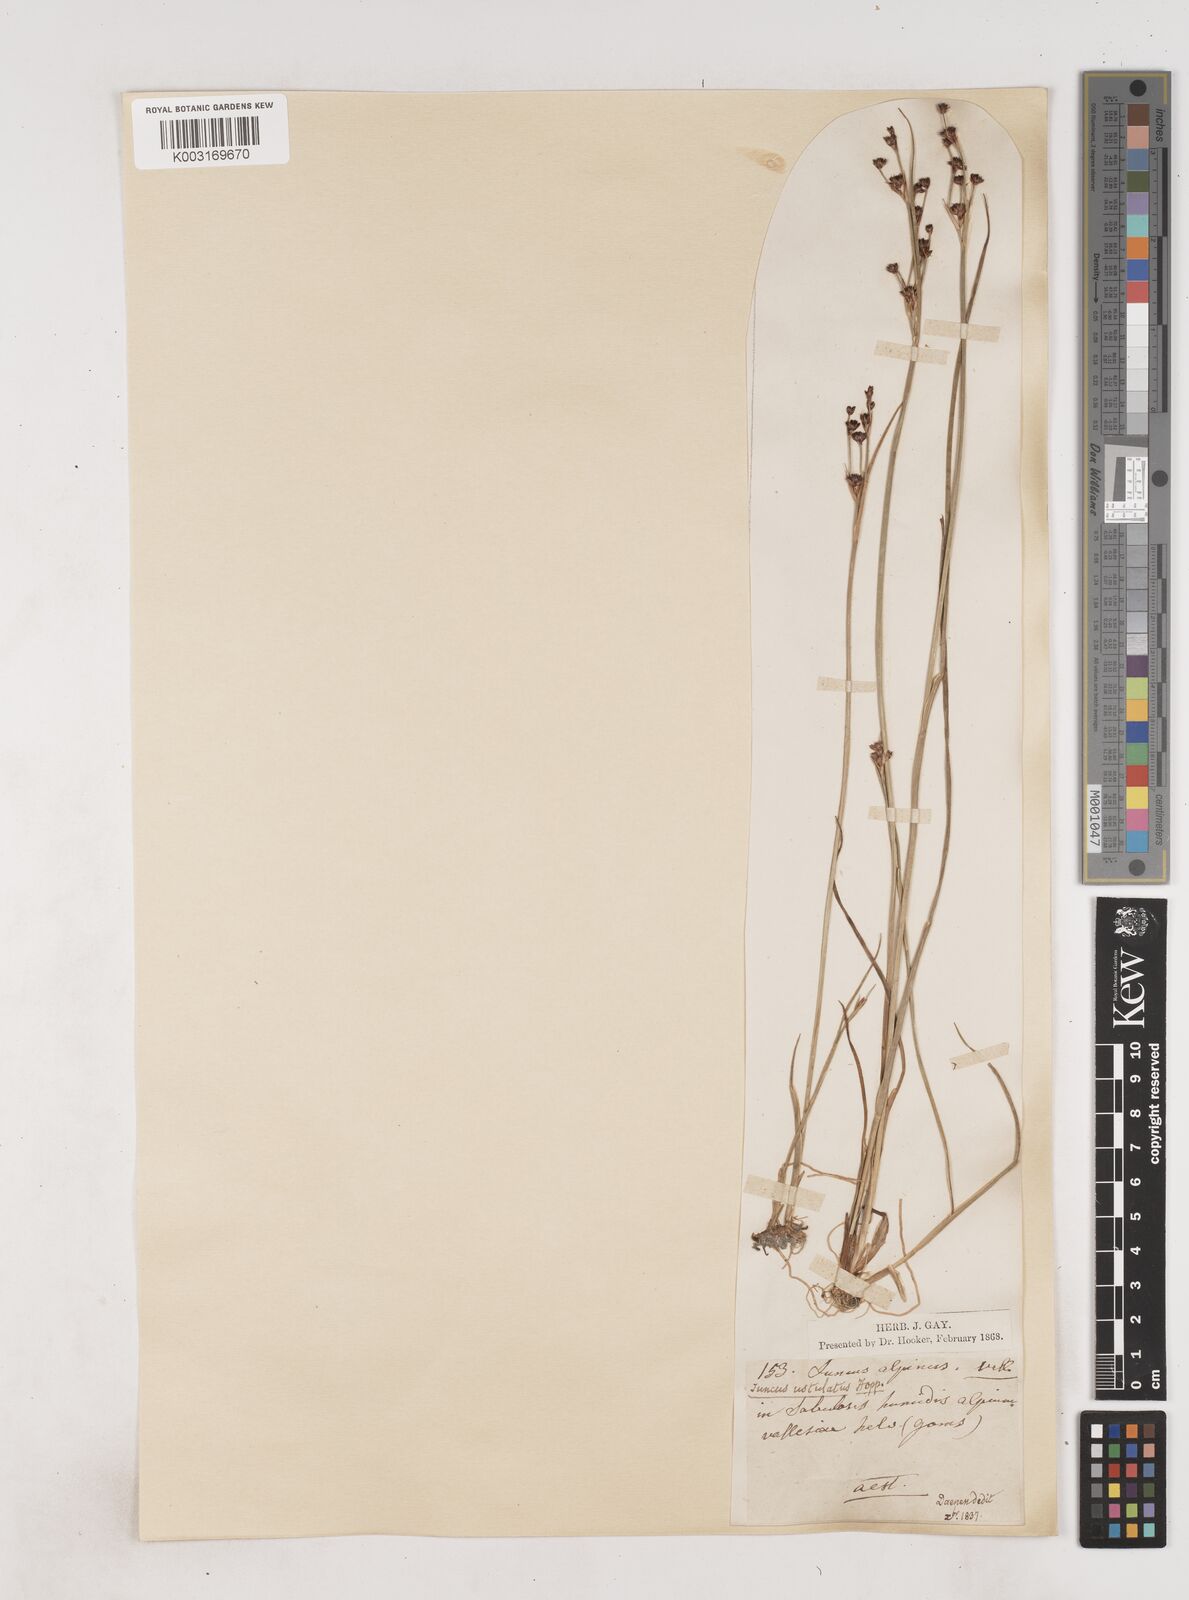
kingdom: Plantae
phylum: Tracheophyta
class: Liliopsida
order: Poales
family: Juncaceae
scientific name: Juncaceae
